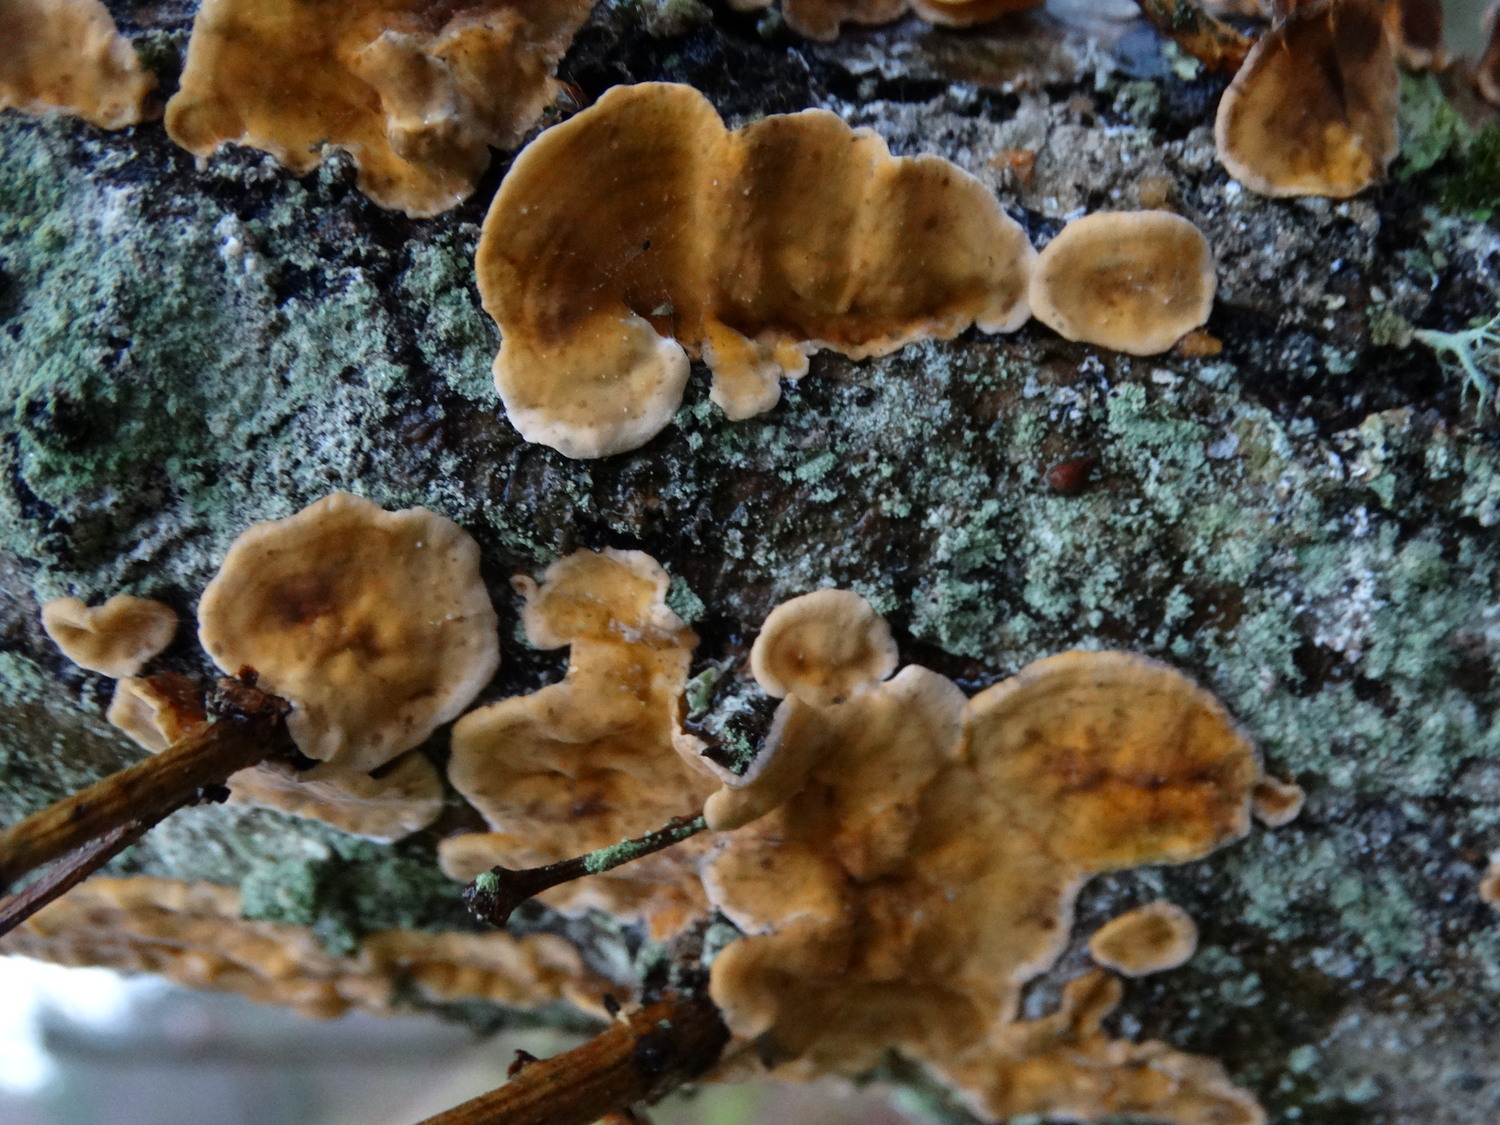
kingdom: Fungi
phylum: Basidiomycota
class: Agaricomycetes
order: Russulales
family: Stereaceae
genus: Stereum
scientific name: Stereum hirsutum
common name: håret lædersvamp
